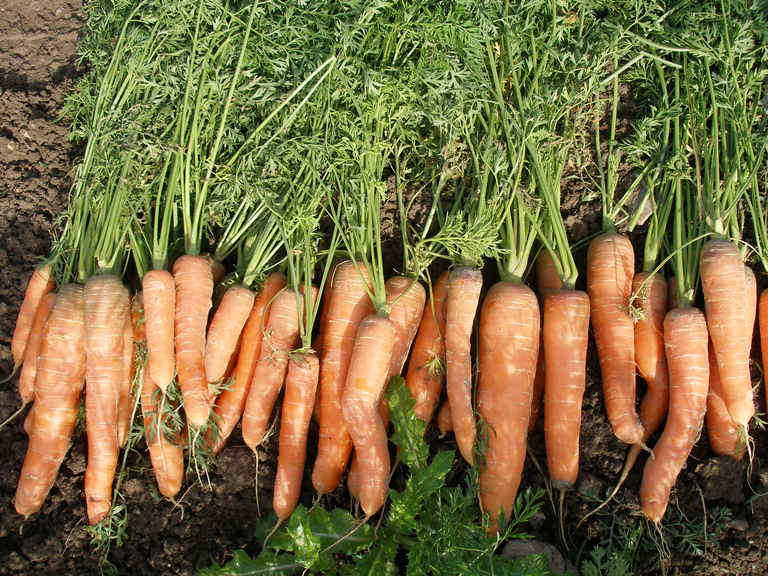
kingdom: Plantae
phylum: Tracheophyta
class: Magnoliopsida
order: Apiales
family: Apiaceae
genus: Daucus
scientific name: Daucus carota
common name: Wild carrot
